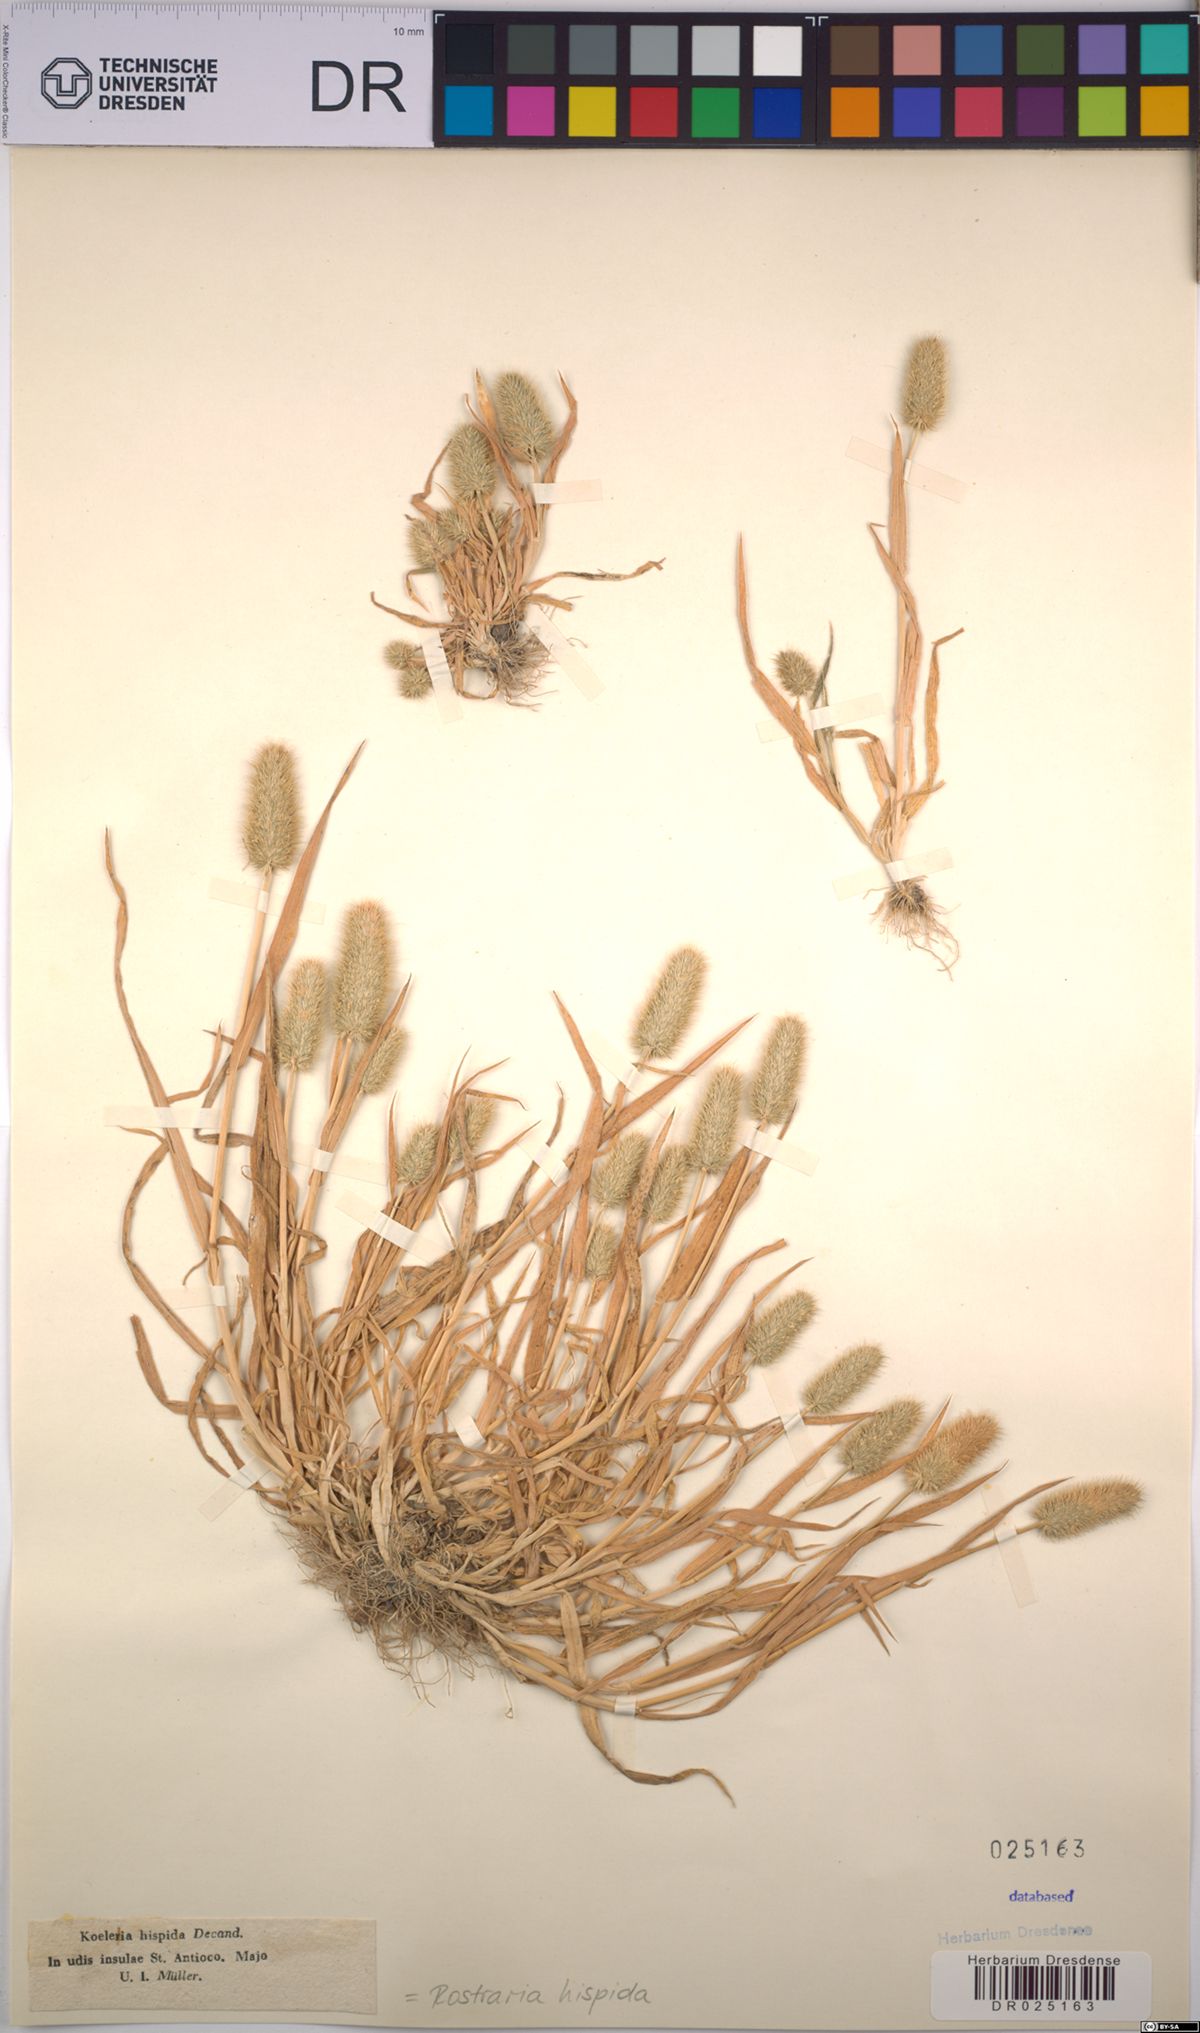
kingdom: Plantae
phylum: Tracheophyta
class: Liliopsida
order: Poales
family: Poaceae
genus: Rostraria
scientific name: Rostraria hispida
